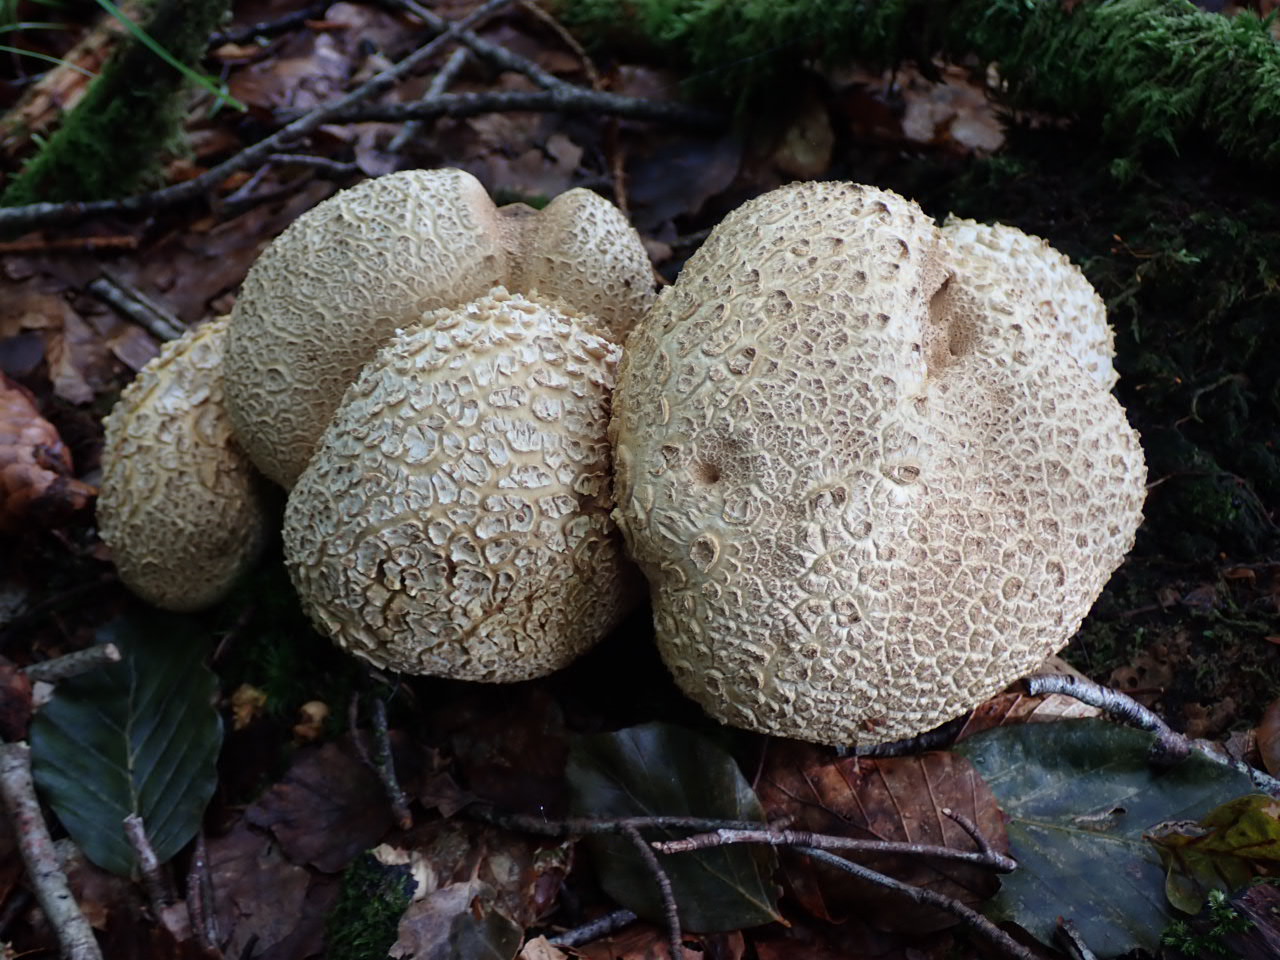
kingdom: Fungi
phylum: Basidiomycota
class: Agaricomycetes
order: Boletales
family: Sclerodermataceae
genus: Scleroderma
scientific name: Scleroderma citrinum
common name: almindelig bruskbold
